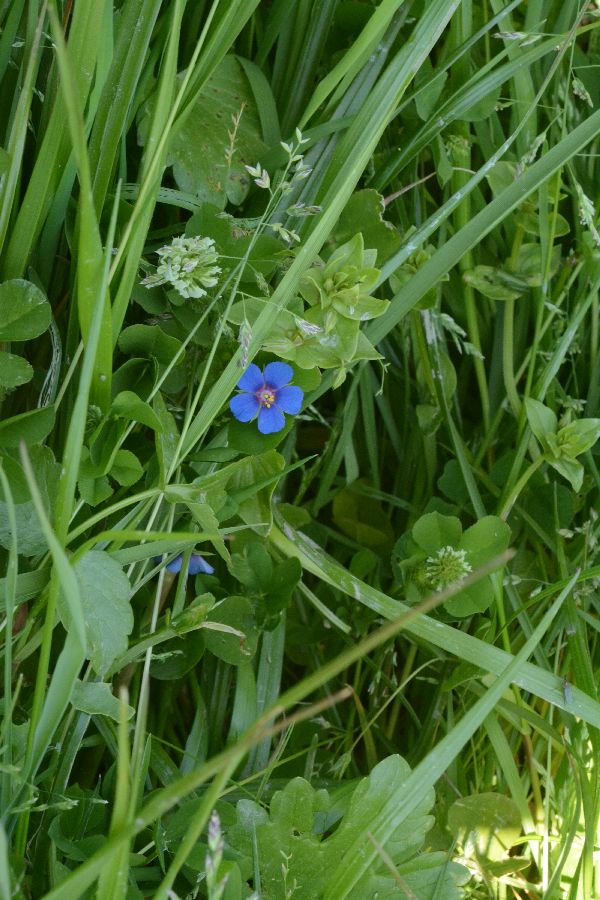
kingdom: Plantae
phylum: Tracheophyta
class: Magnoliopsida
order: Ericales
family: Primulaceae
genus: Lysimachia
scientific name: Lysimachia arvensis
